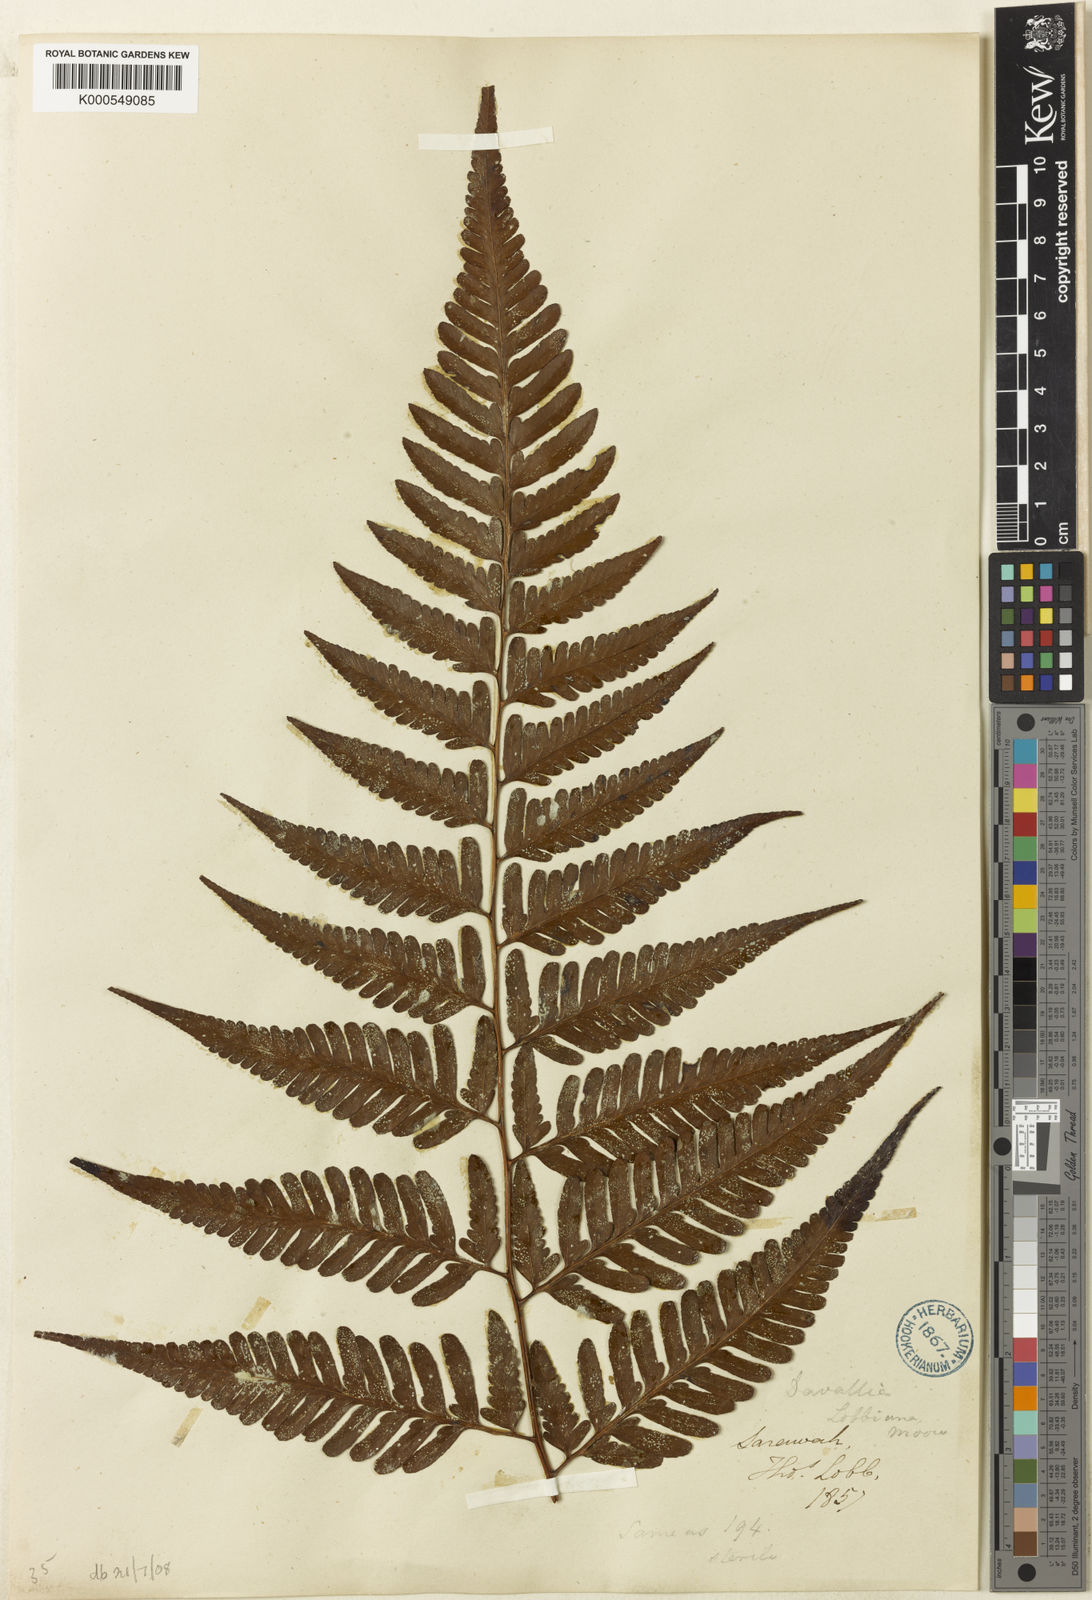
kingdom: Plantae
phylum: Tracheophyta
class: Polypodiopsida
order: Polypodiales
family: Davalliaceae
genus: Davallia
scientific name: Davallia divaricata
